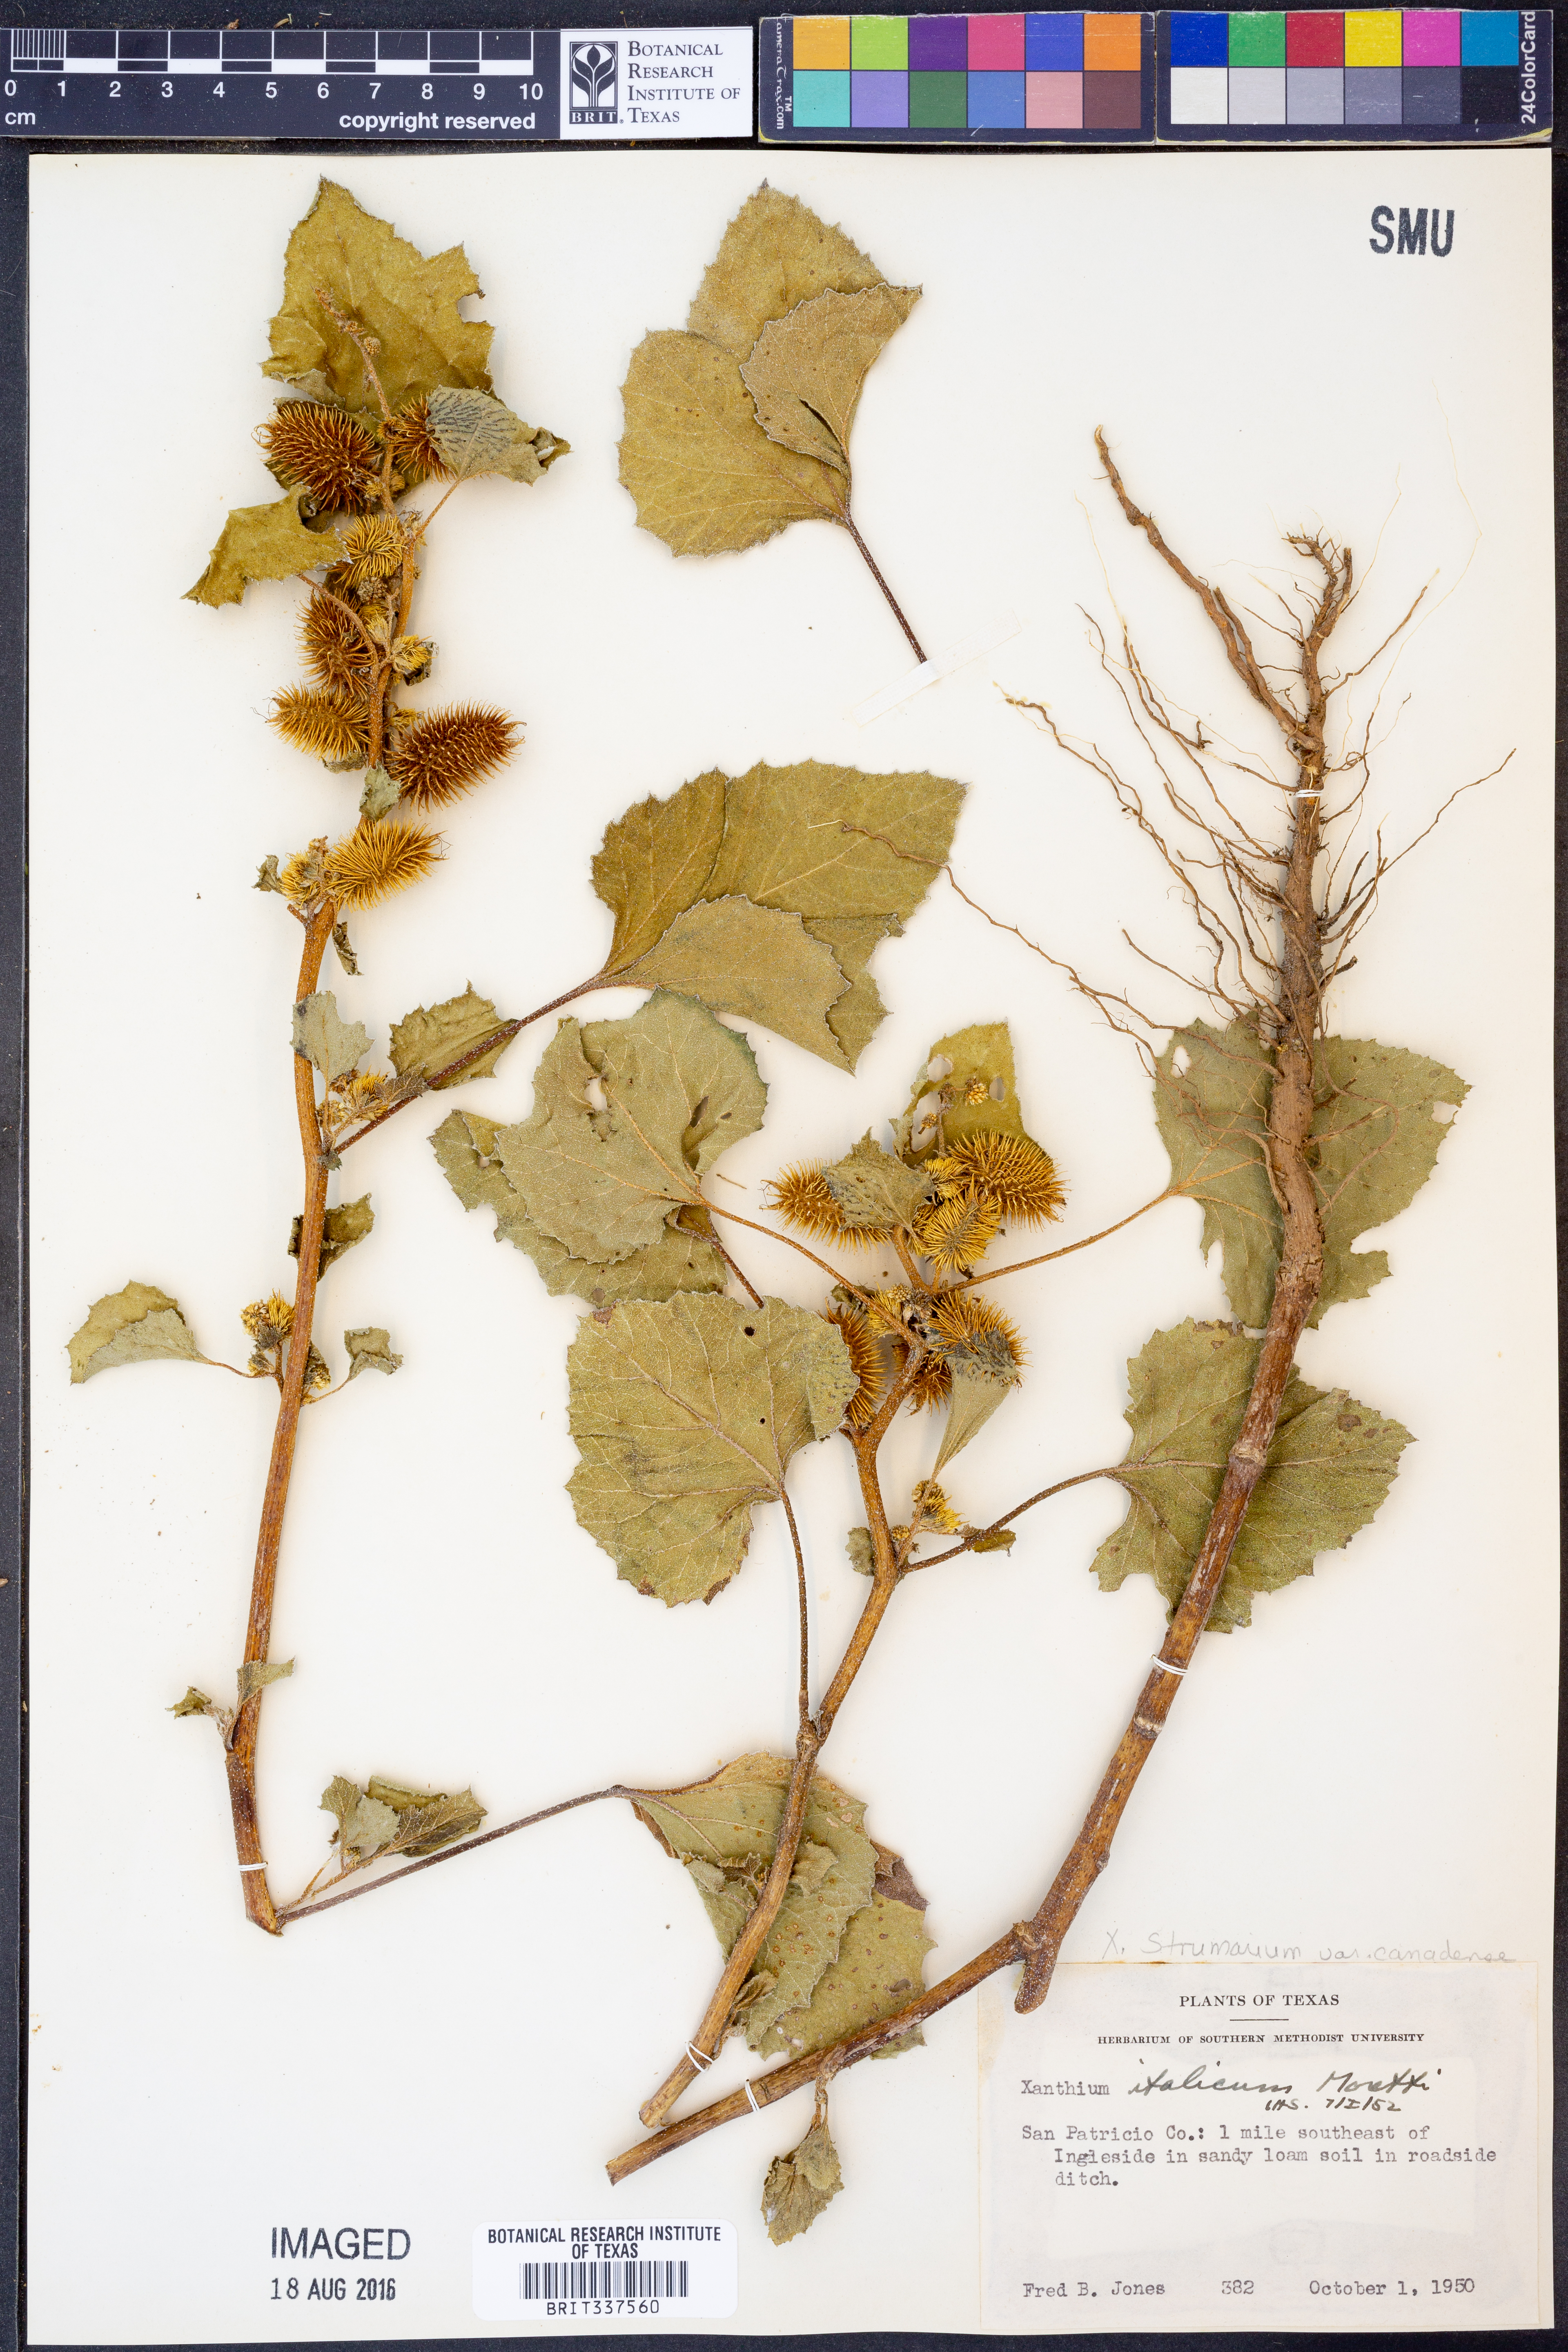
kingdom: Plantae
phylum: Tracheophyta
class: Magnoliopsida
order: Asterales
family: Asteraceae
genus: Xanthium
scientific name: Xanthium orientale
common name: Californian burr
